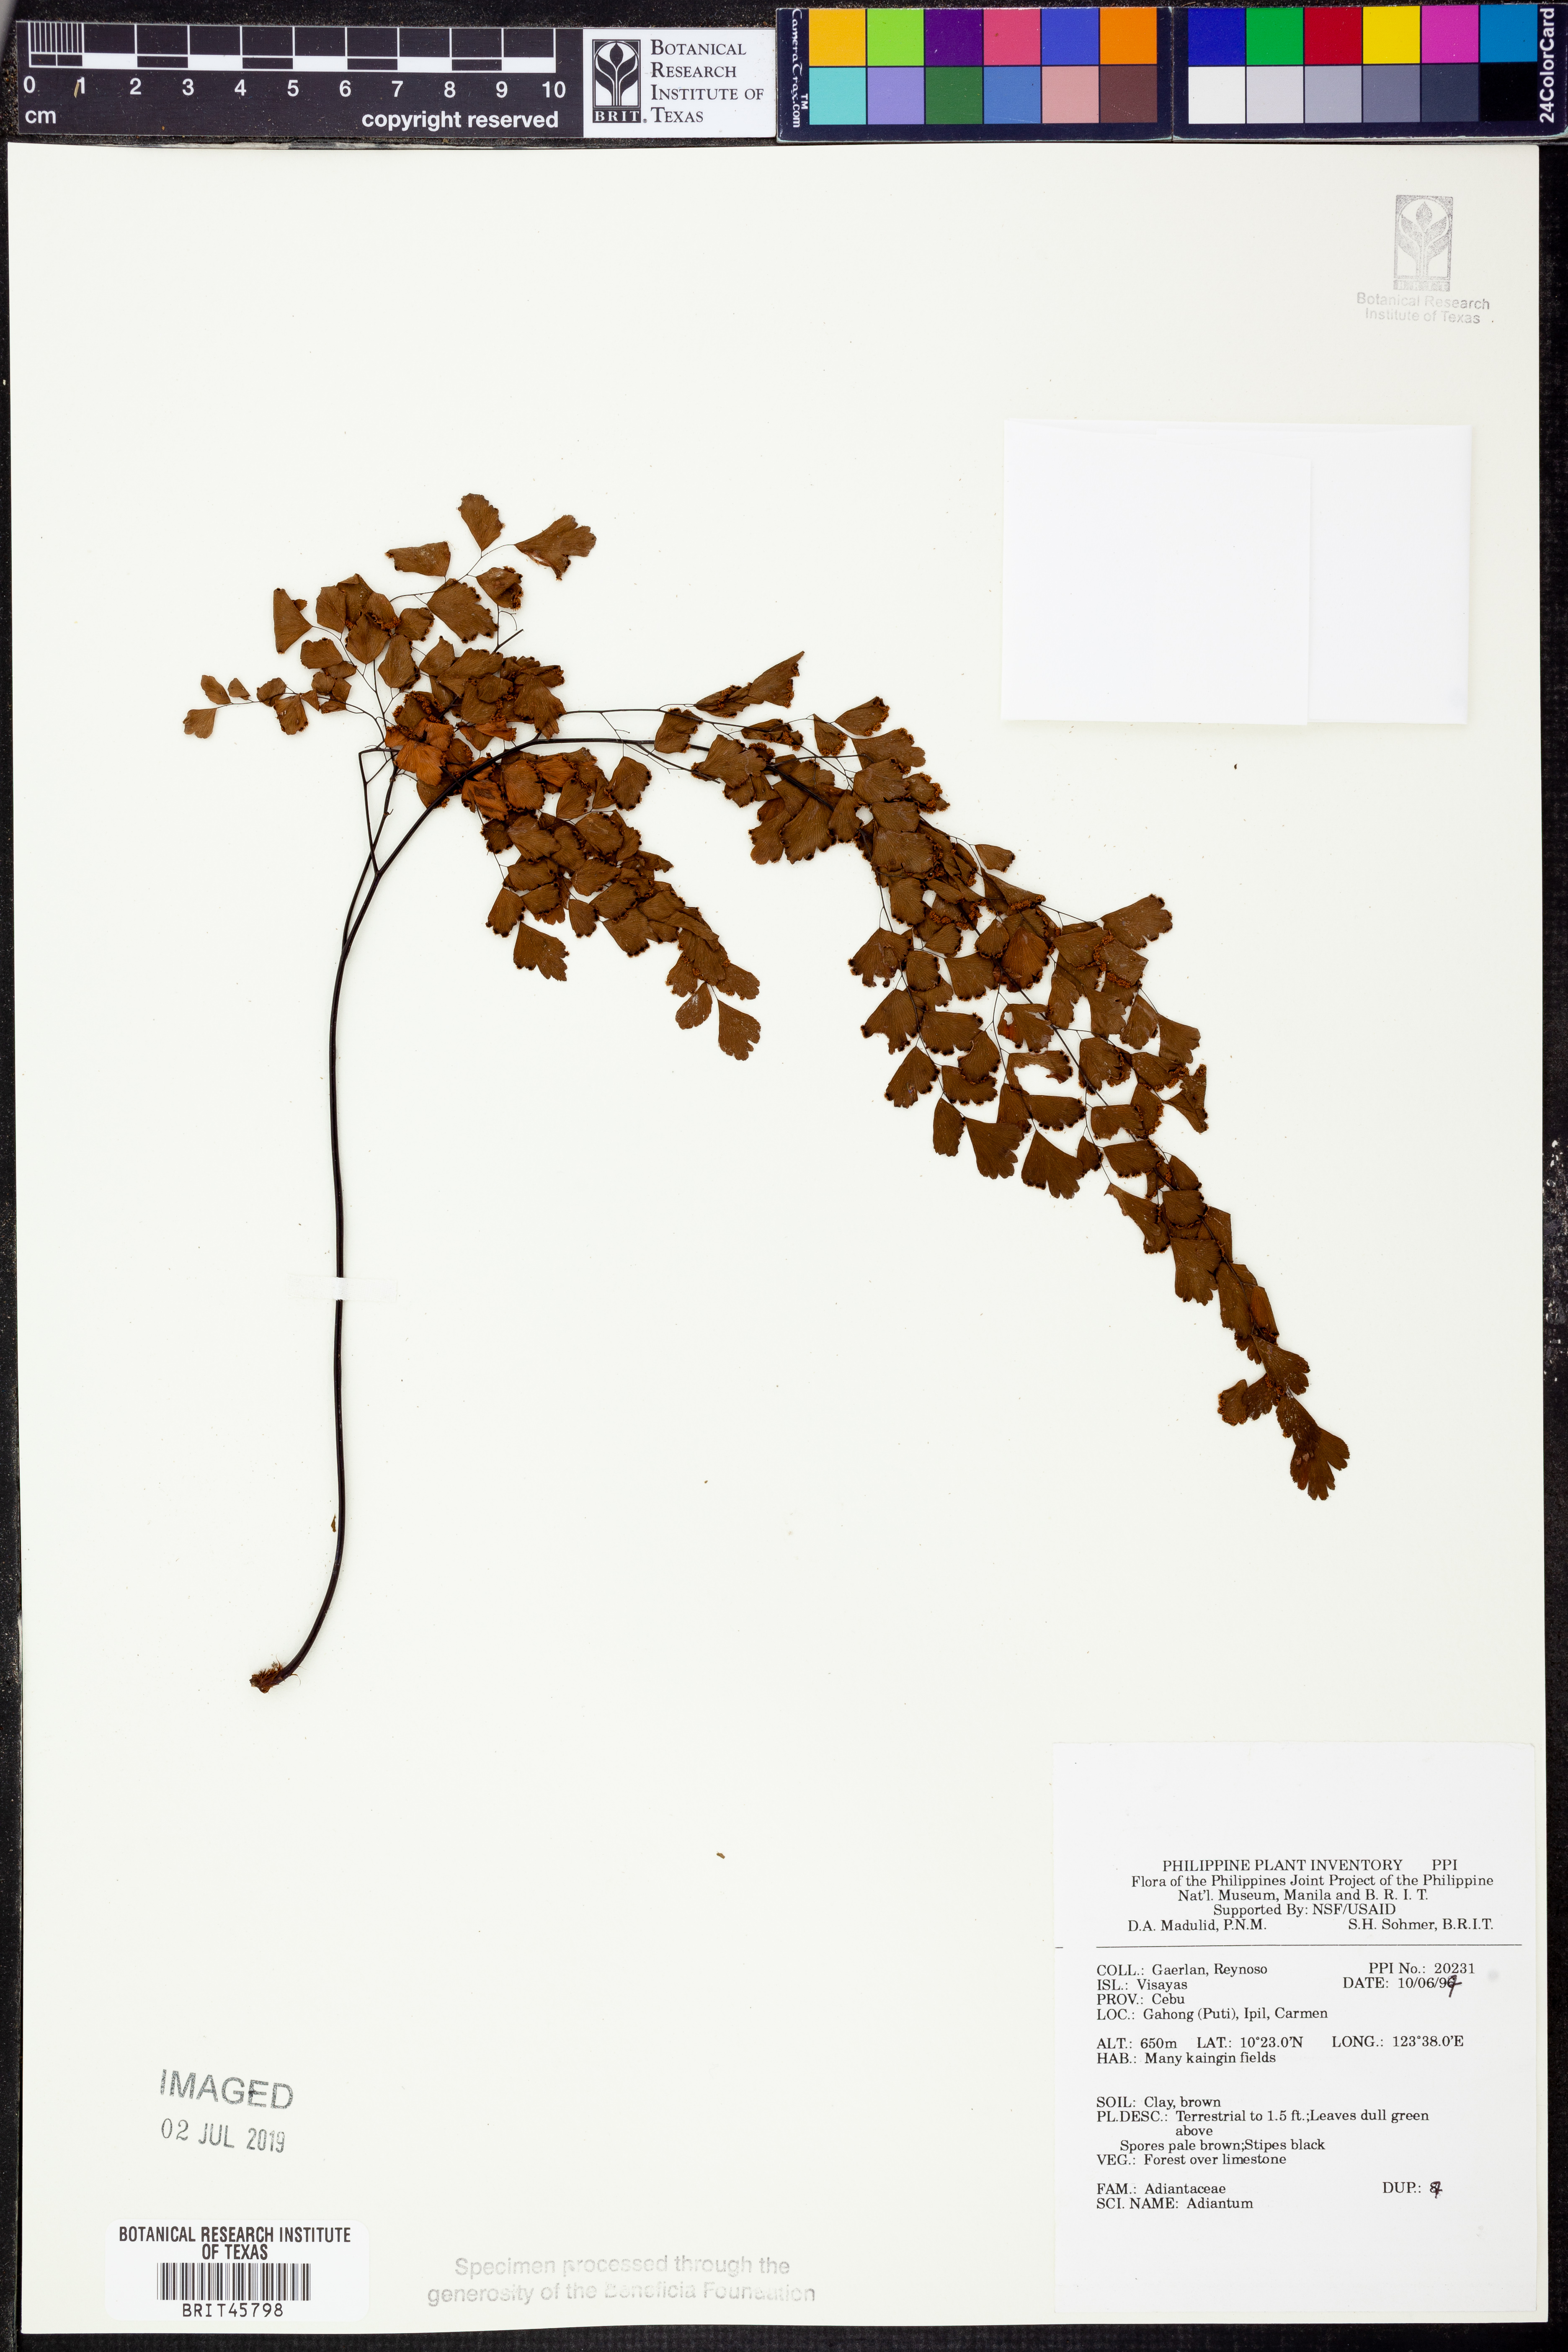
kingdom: Plantae
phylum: Tracheophyta
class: Polypodiopsida
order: Polypodiales
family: Pteridaceae
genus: Adiantum
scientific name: Adiantum
